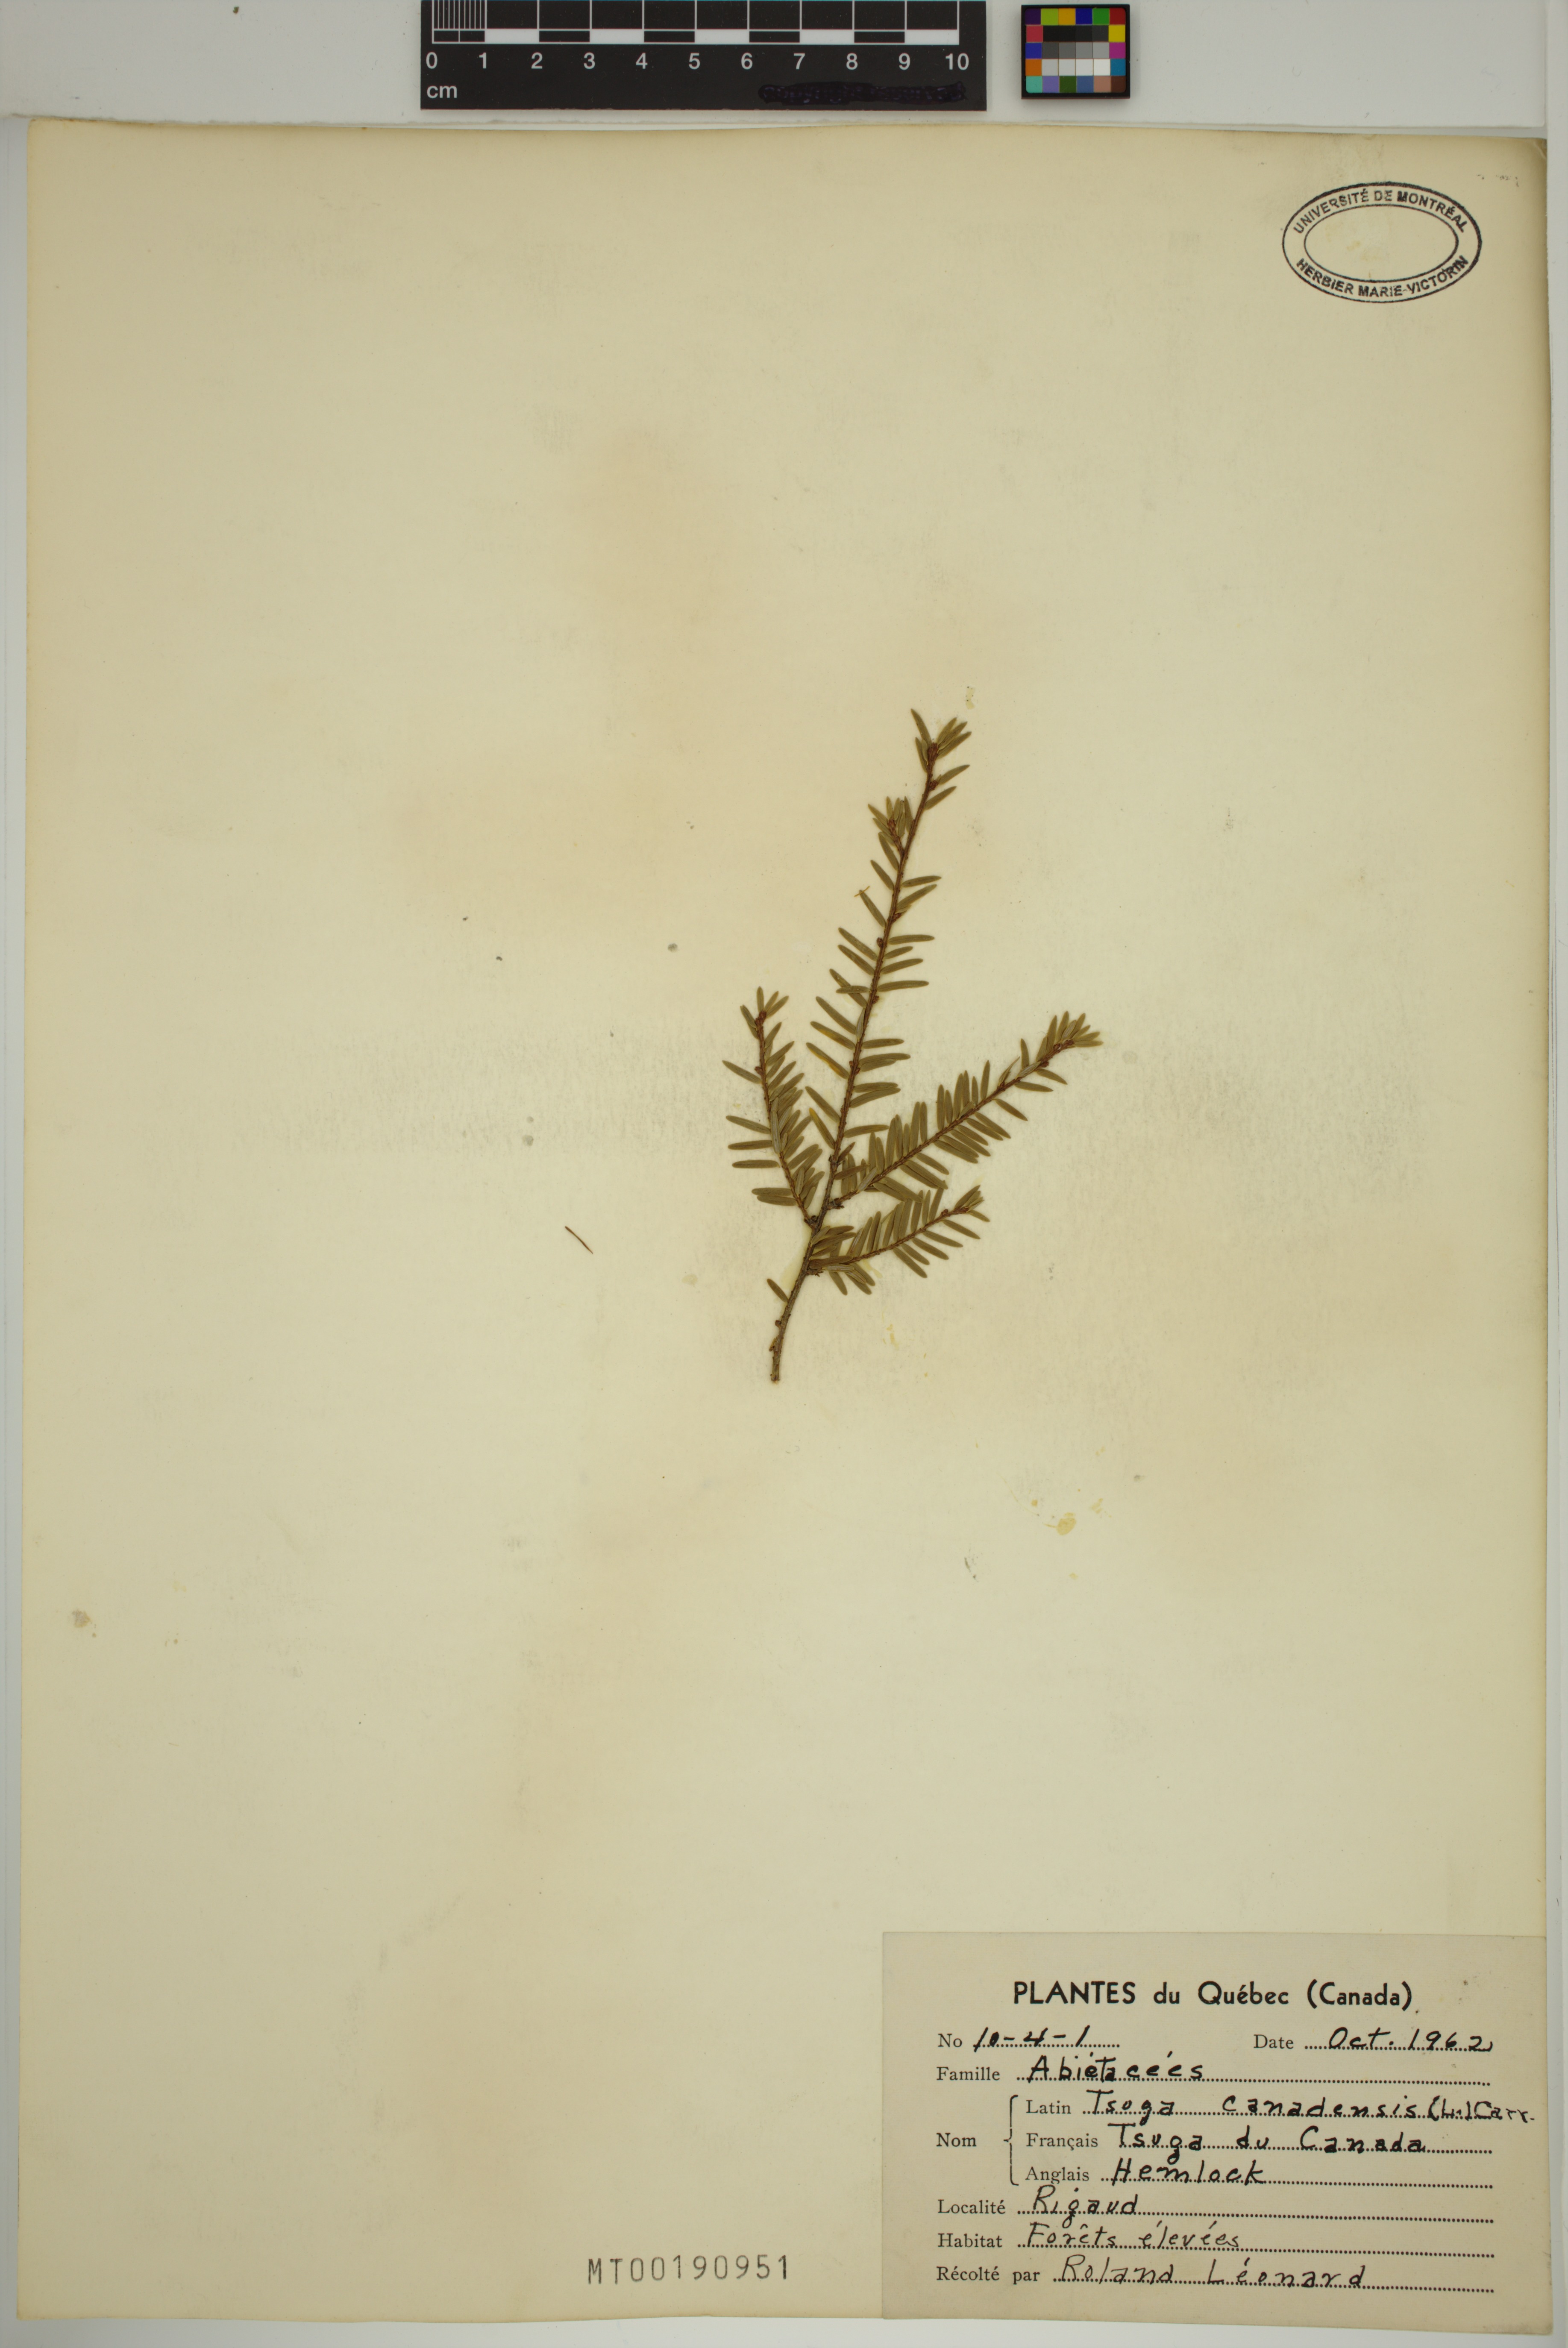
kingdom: Plantae
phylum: Tracheophyta
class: Pinopsida
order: Pinales
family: Pinaceae
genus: Tsuga
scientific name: Tsuga canadensis
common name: Eastern hemlock
